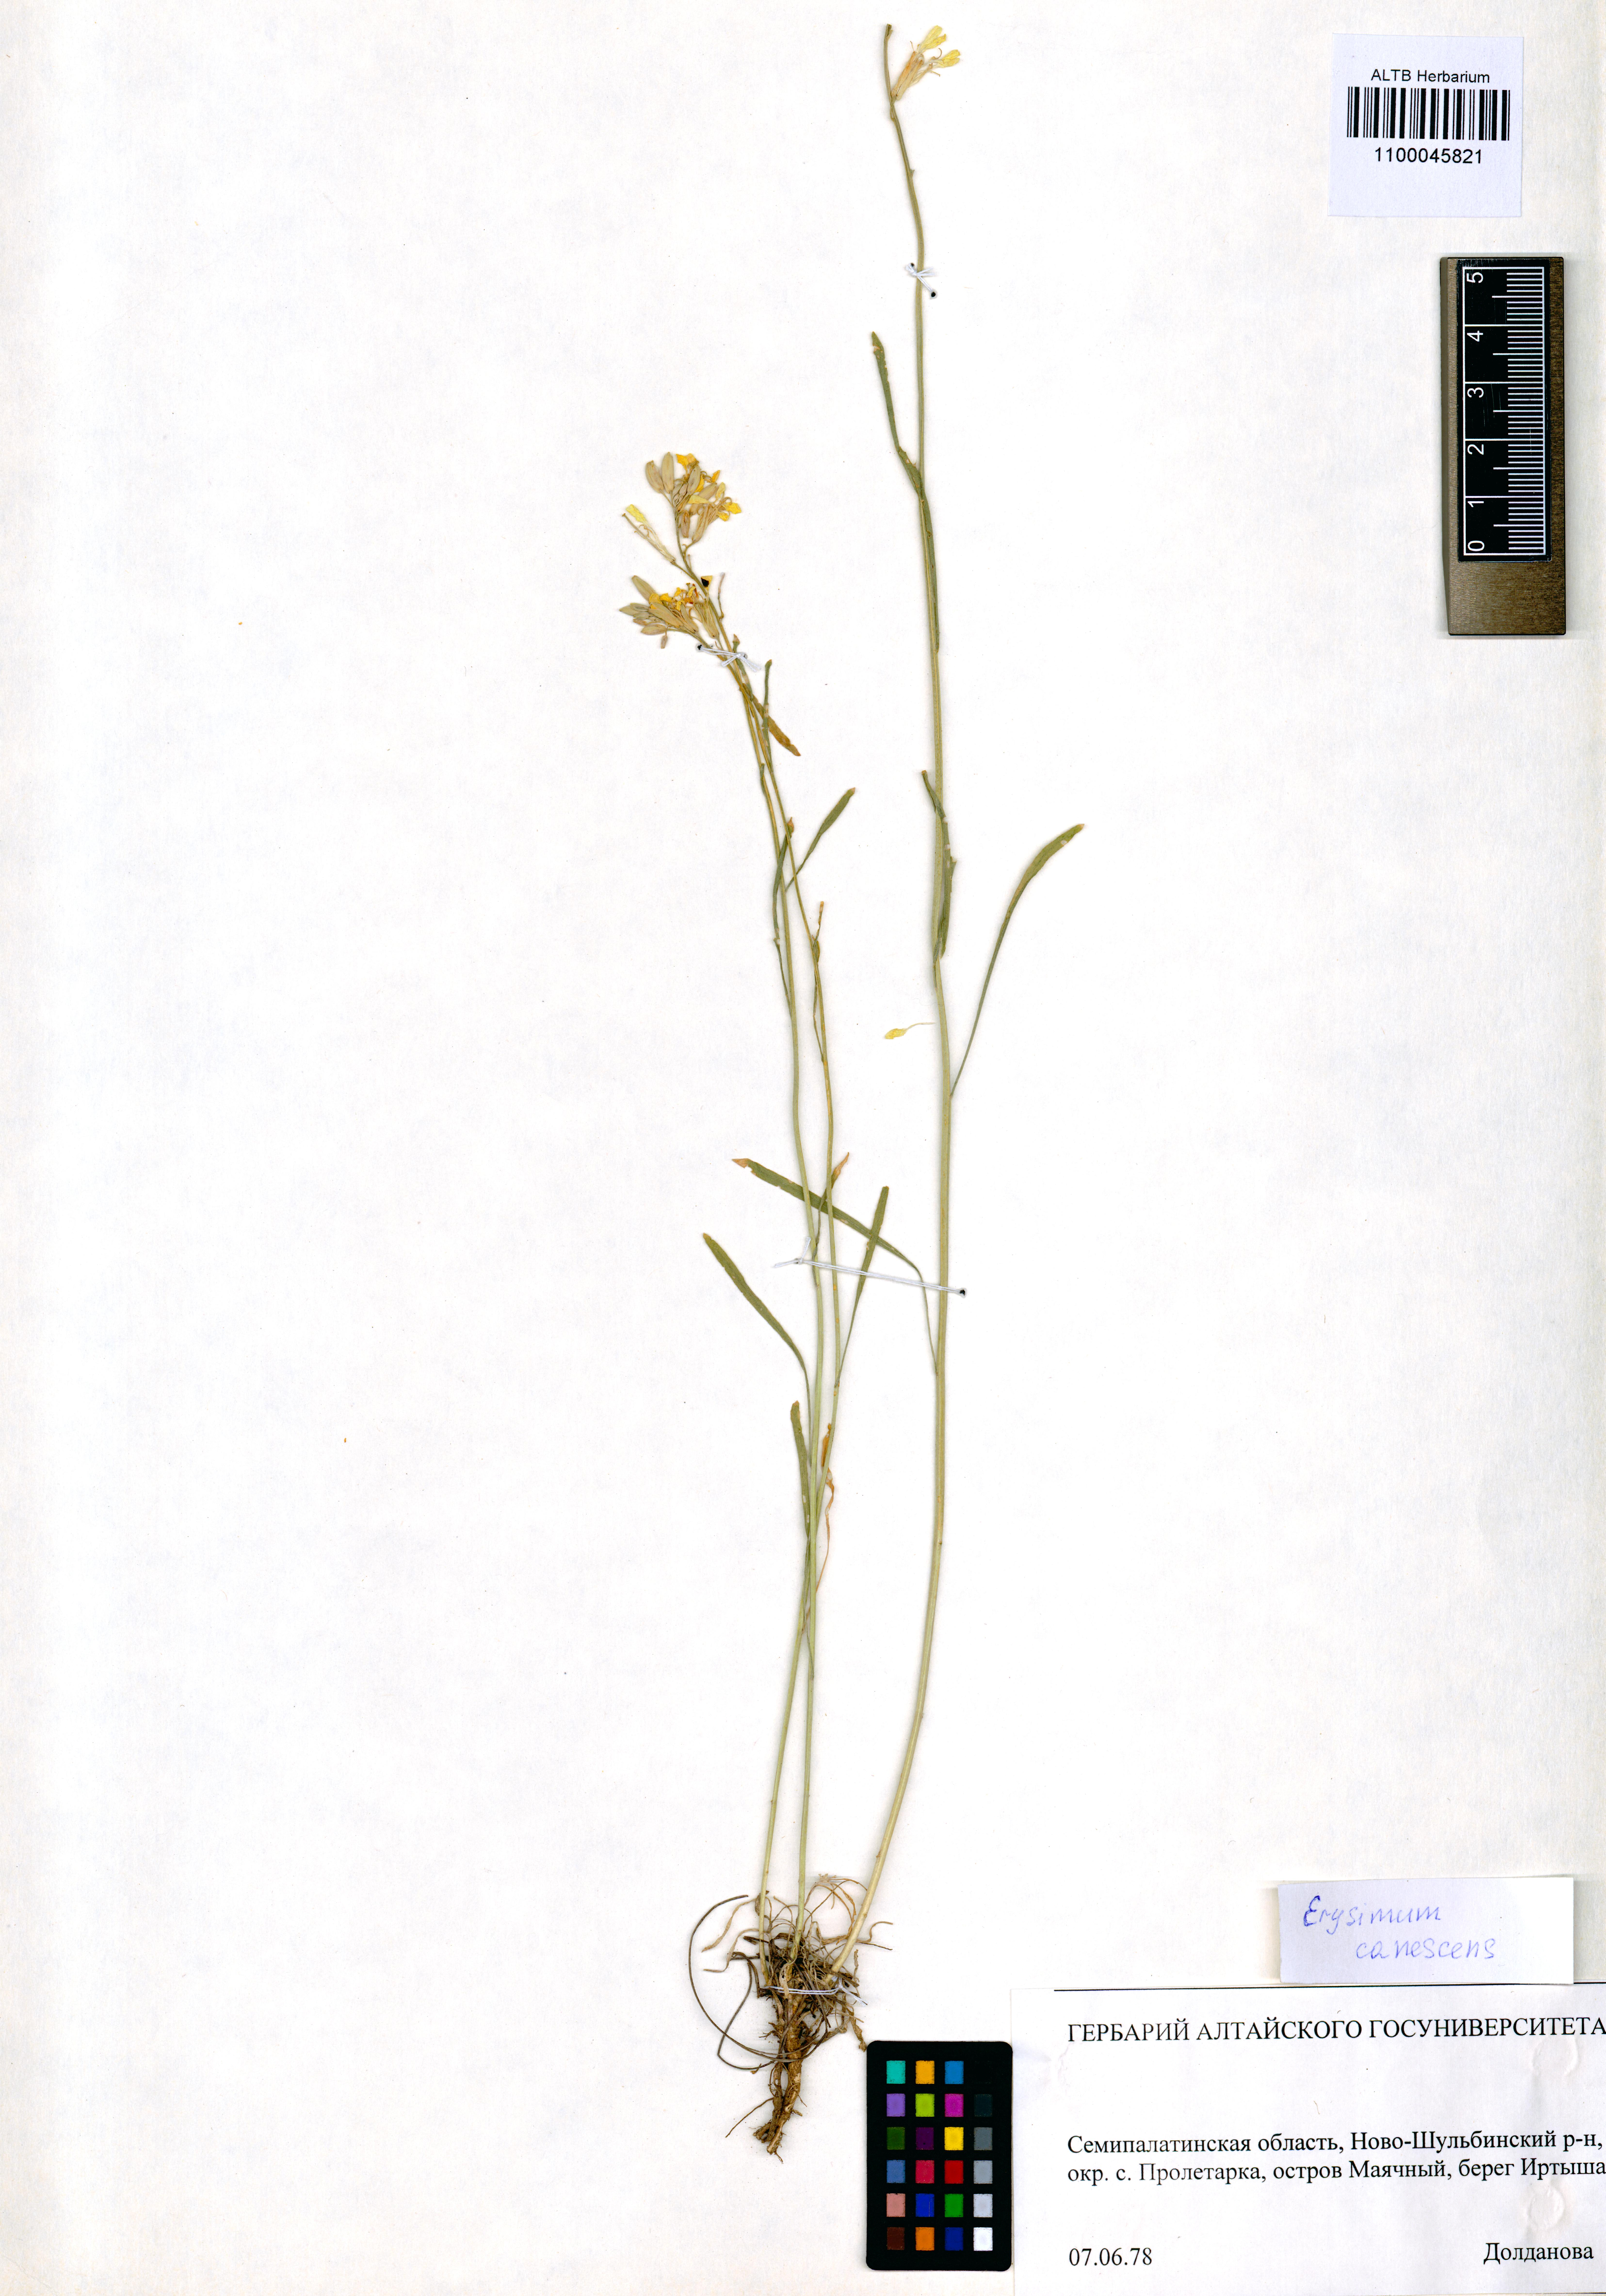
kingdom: Plantae
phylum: Tracheophyta
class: Magnoliopsida
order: Brassicales
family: Brassicaceae
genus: Erysimum
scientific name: Erysimum canescens
